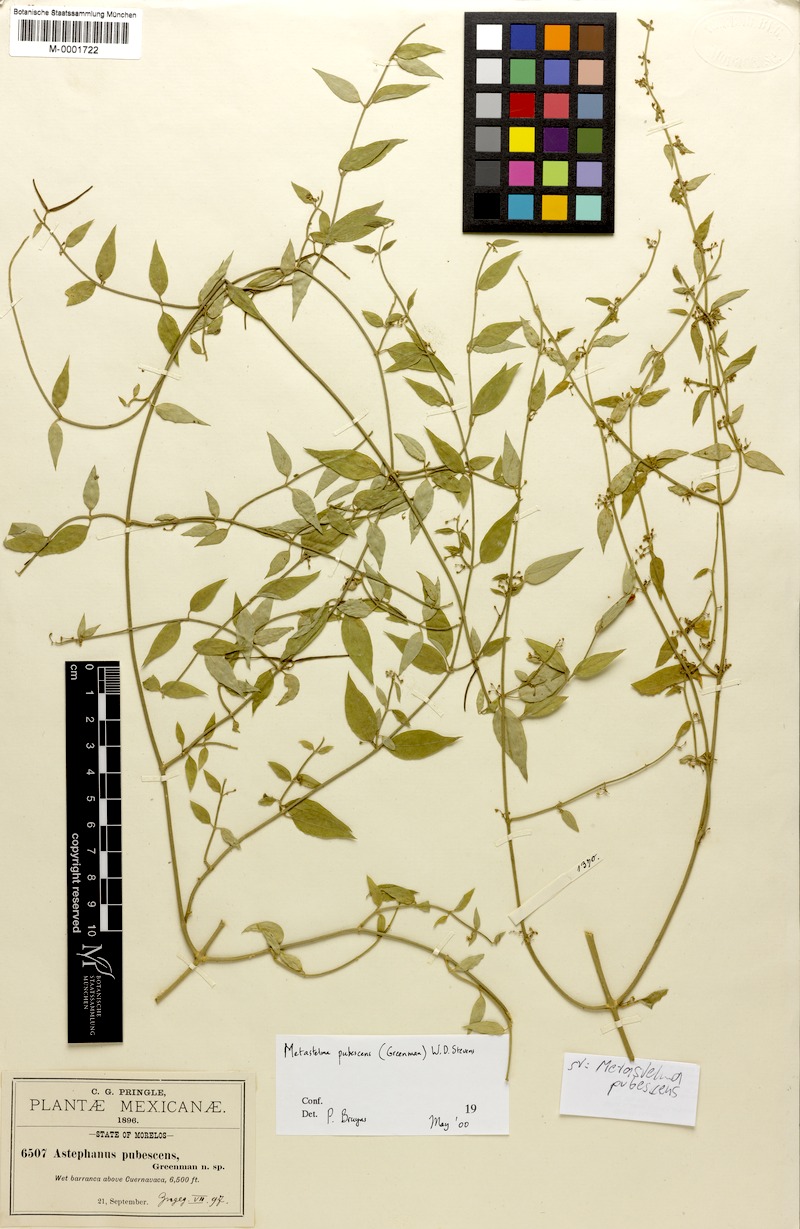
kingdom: Plantae
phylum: Tracheophyta
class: Magnoliopsida
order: Gentianales
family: Apocynaceae
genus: Orthosia
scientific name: Orthosia pubescens
